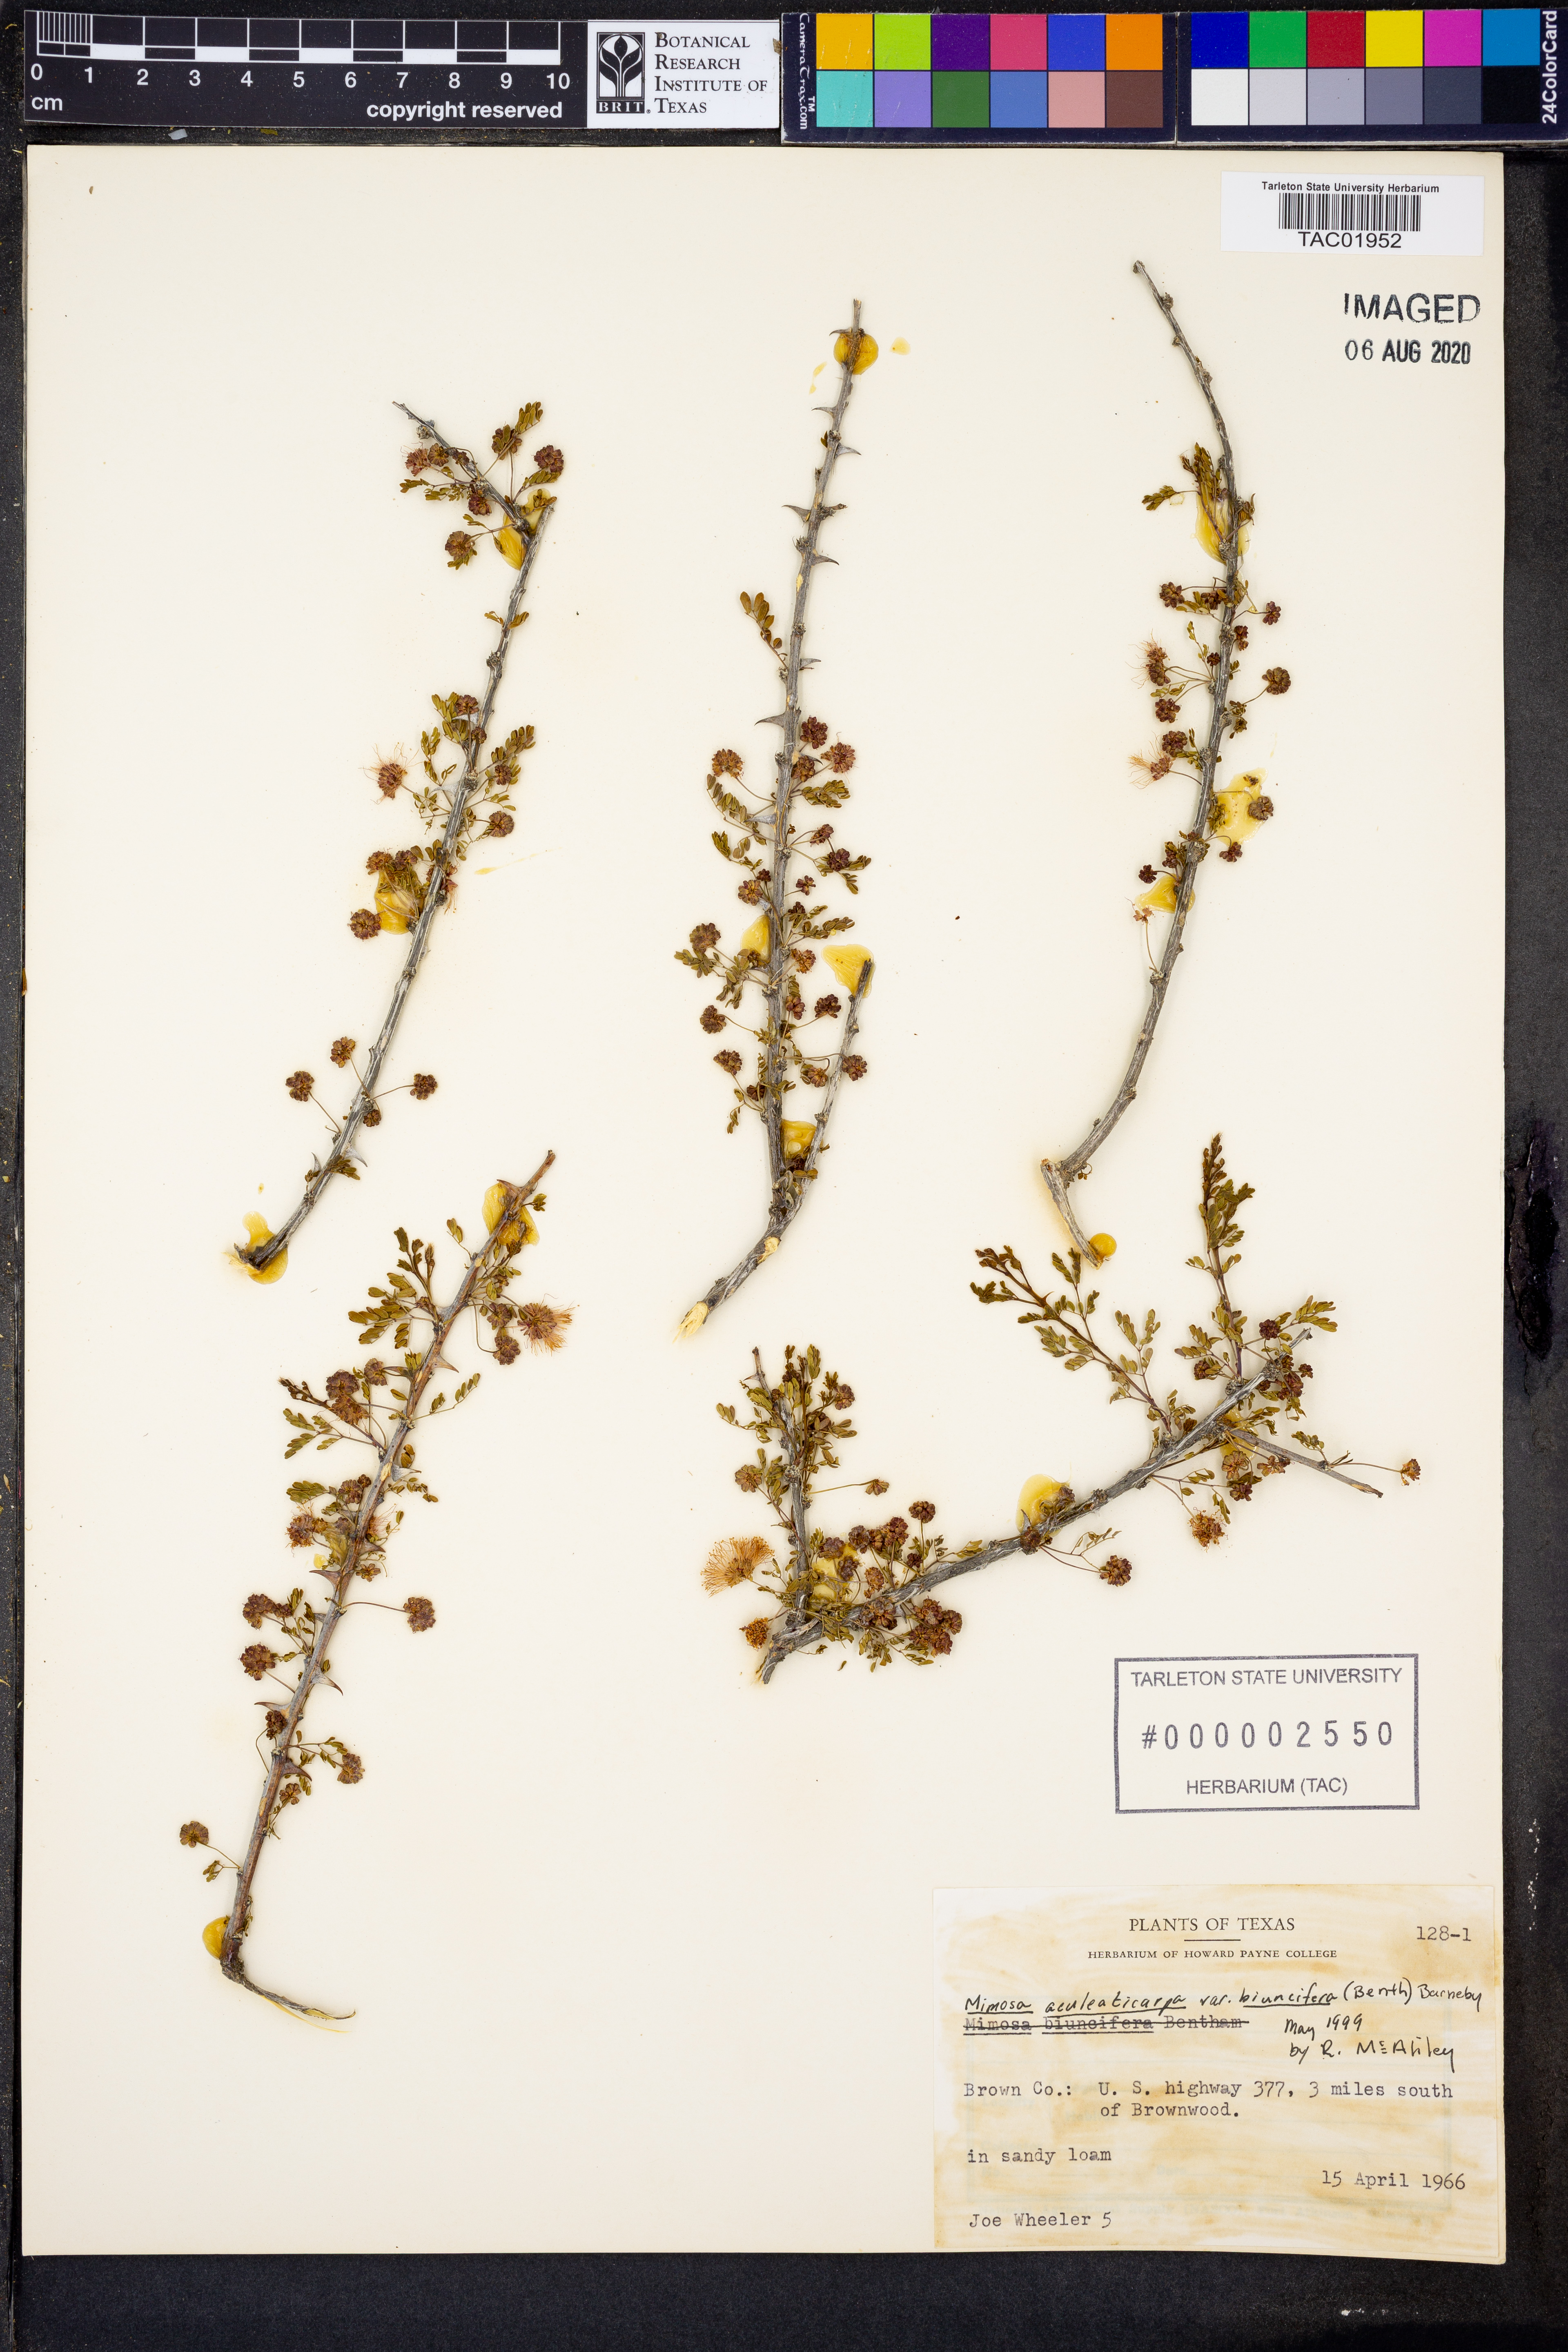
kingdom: Plantae
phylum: Tracheophyta
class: Magnoliopsida
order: Fabales
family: Fabaceae
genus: Mimosa
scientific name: Mimosa biuncifera
